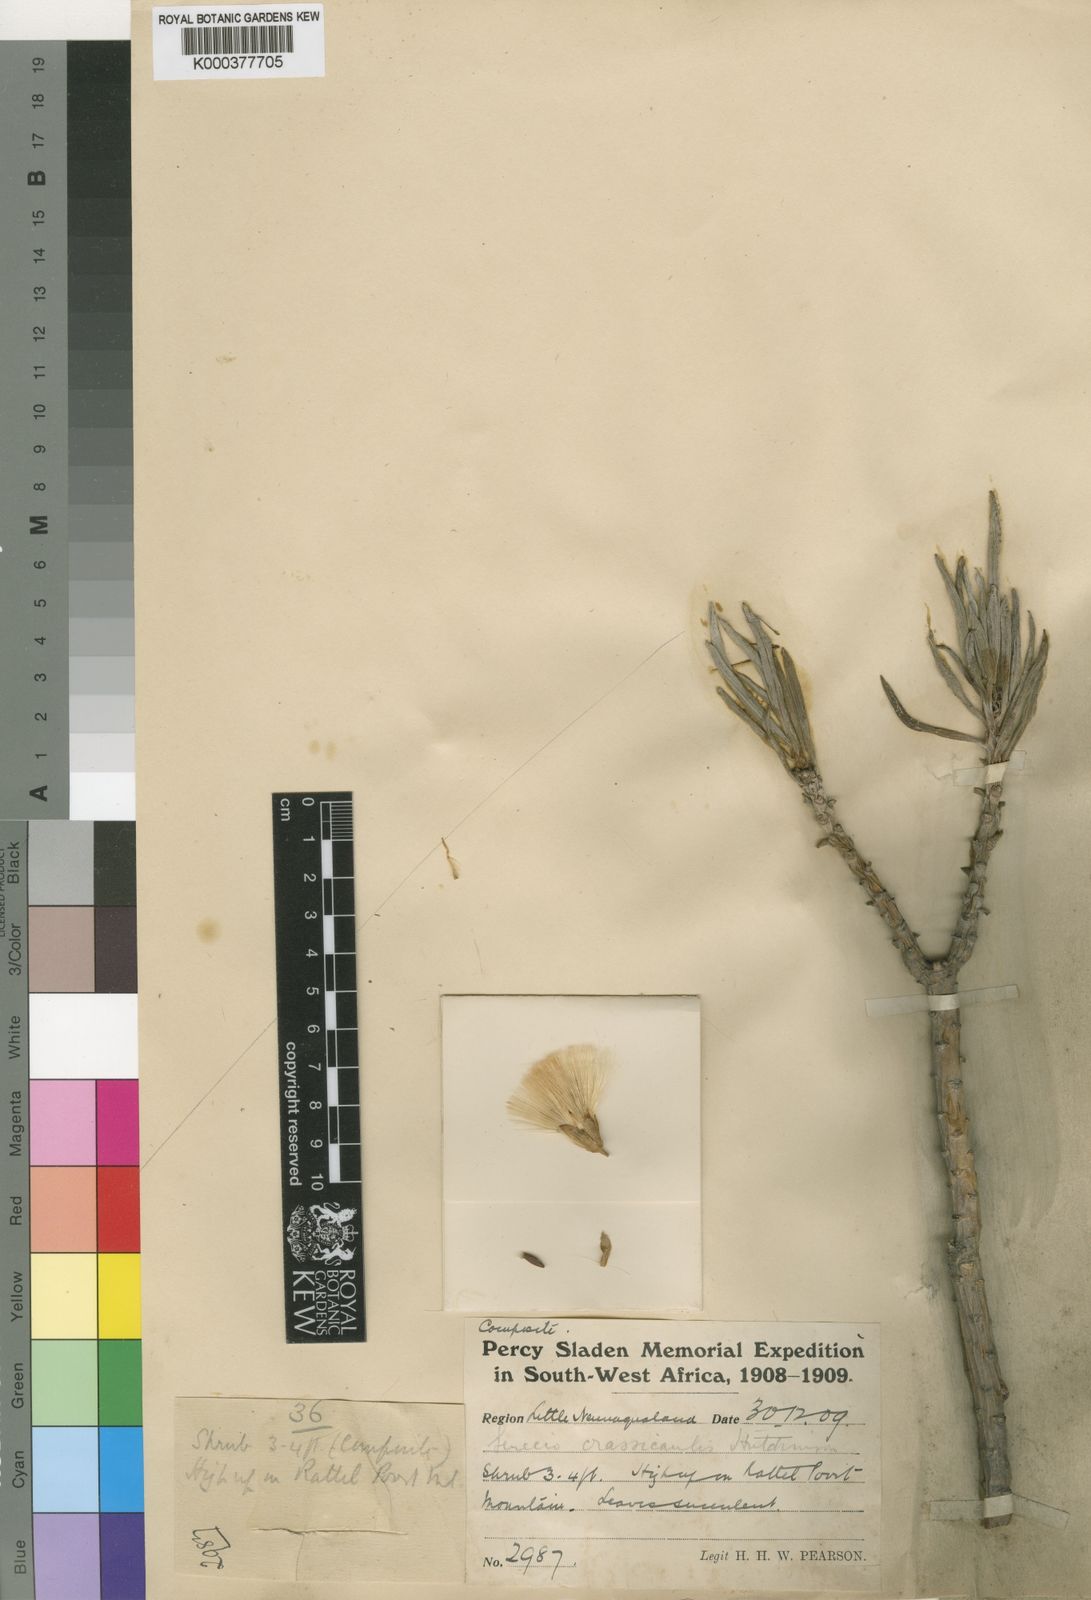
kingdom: Plantae
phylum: Tracheophyta
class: Magnoliopsida
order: Asterales
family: Asteraceae
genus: Kleinia
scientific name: Kleinia
